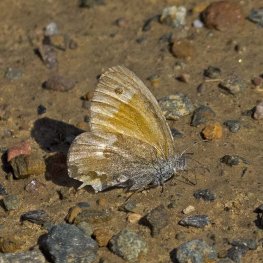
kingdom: Animalia
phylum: Arthropoda
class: Insecta
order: Lepidoptera
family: Nymphalidae
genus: Coenonympha
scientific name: Coenonympha tullia
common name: Large Heath
